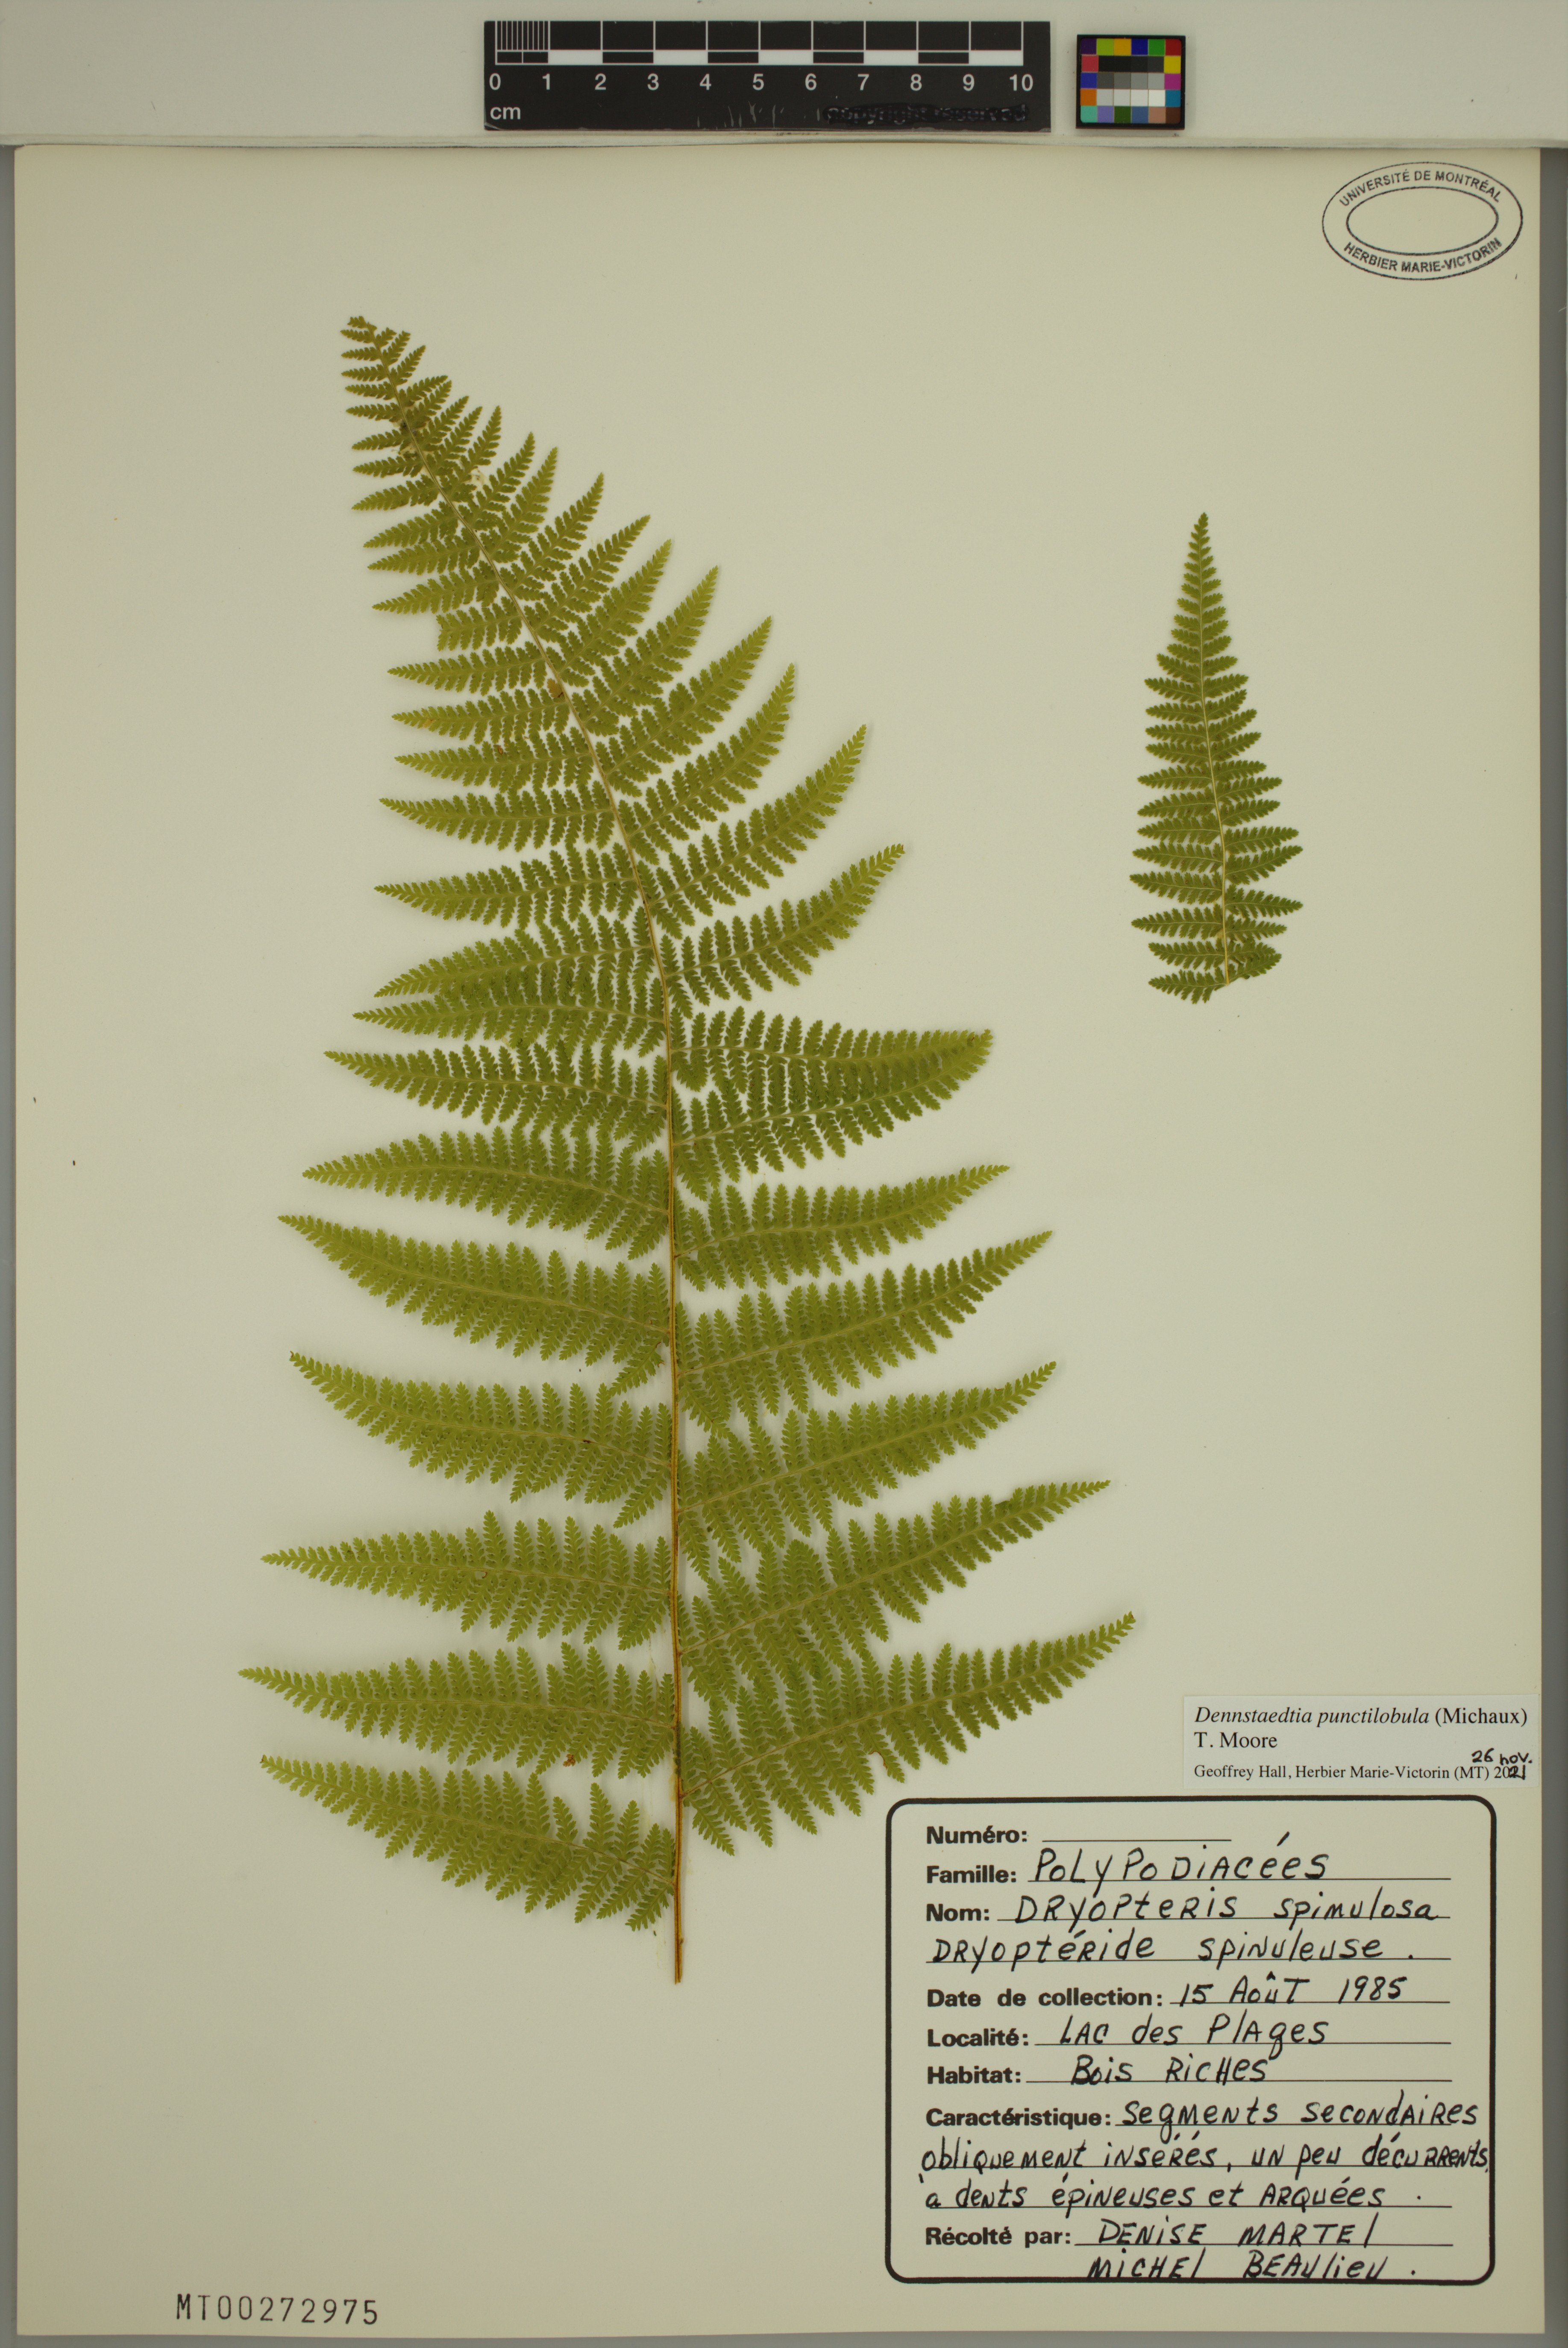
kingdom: Plantae
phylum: Tracheophyta
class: Polypodiopsida
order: Polypodiales
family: Dennstaedtiaceae
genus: Sitobolium
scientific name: Sitobolium punctilobum
